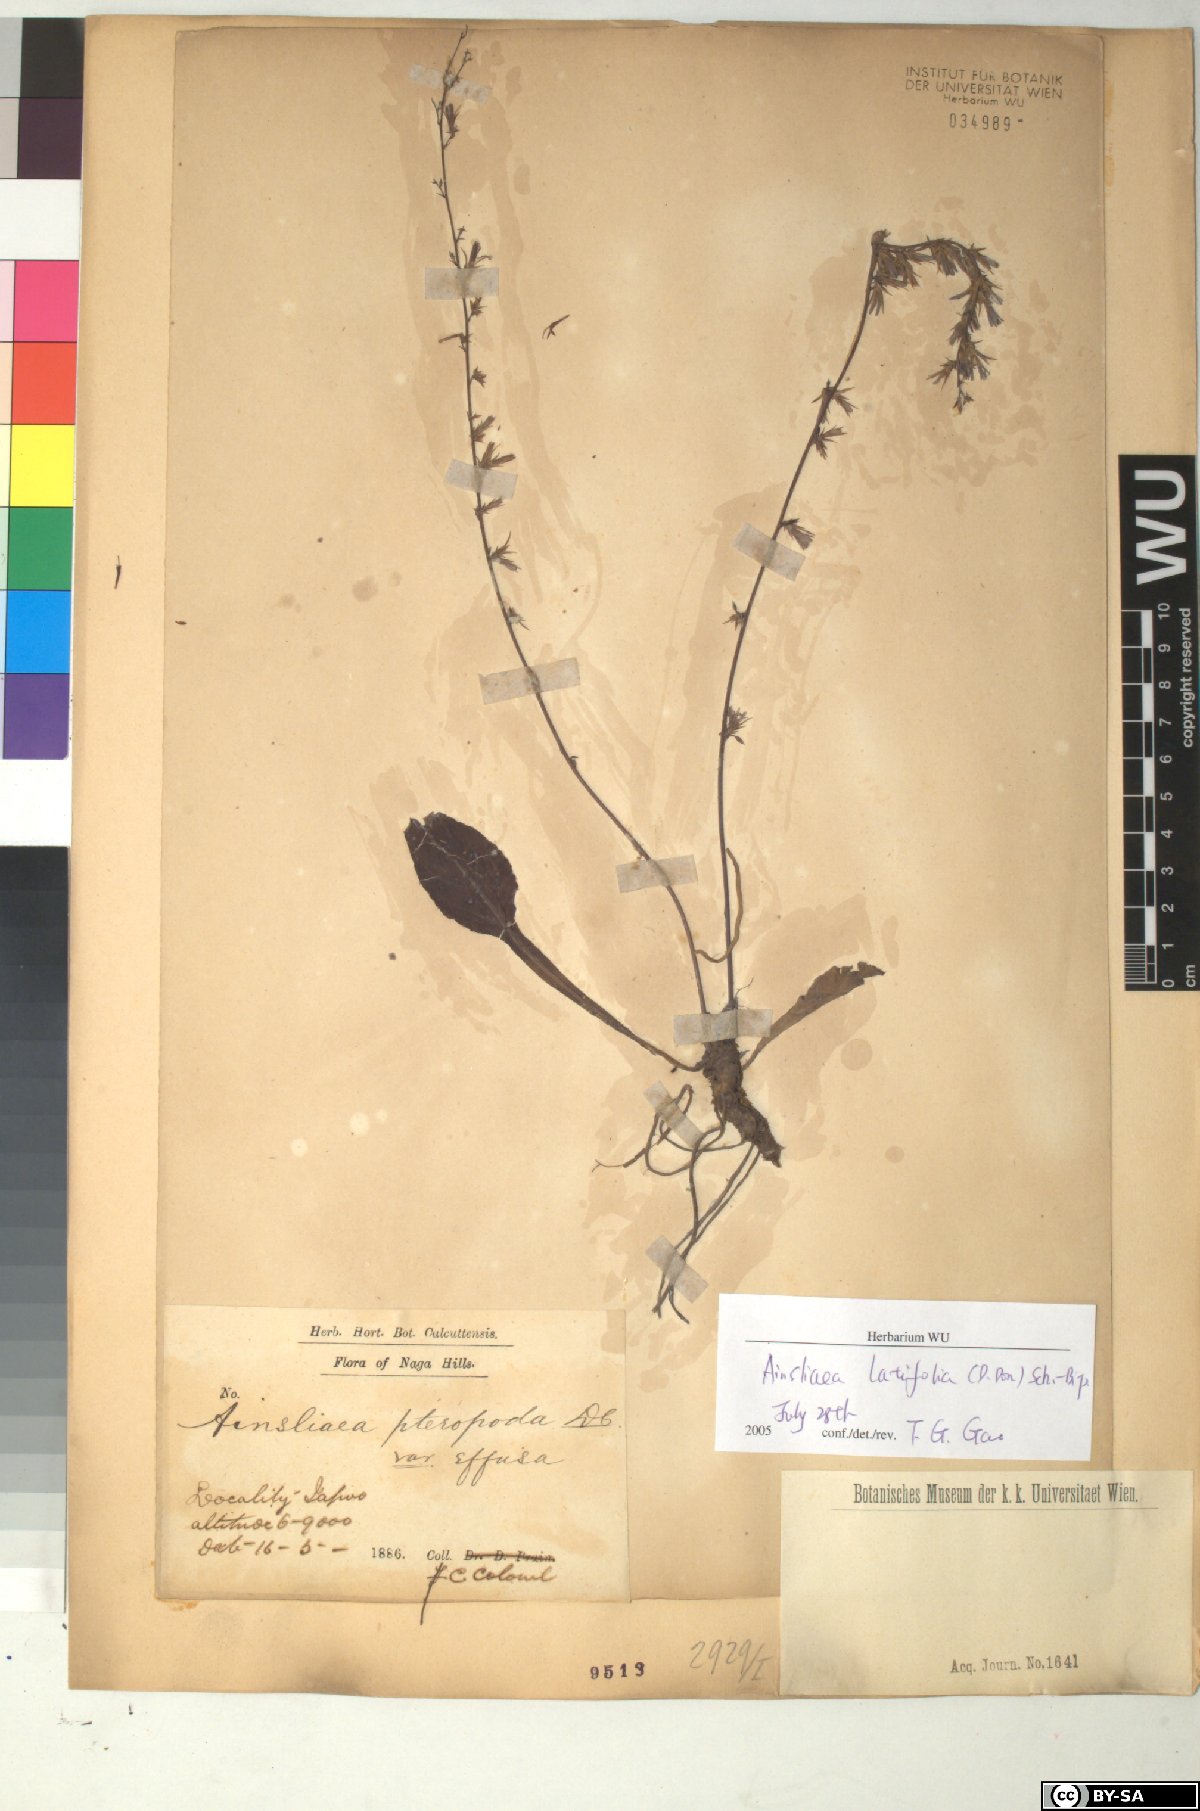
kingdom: Plantae
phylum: Tracheophyta
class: Magnoliopsida
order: Asterales
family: Asteraceae
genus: Ainsliaea
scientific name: Ainsliaea latifolia
